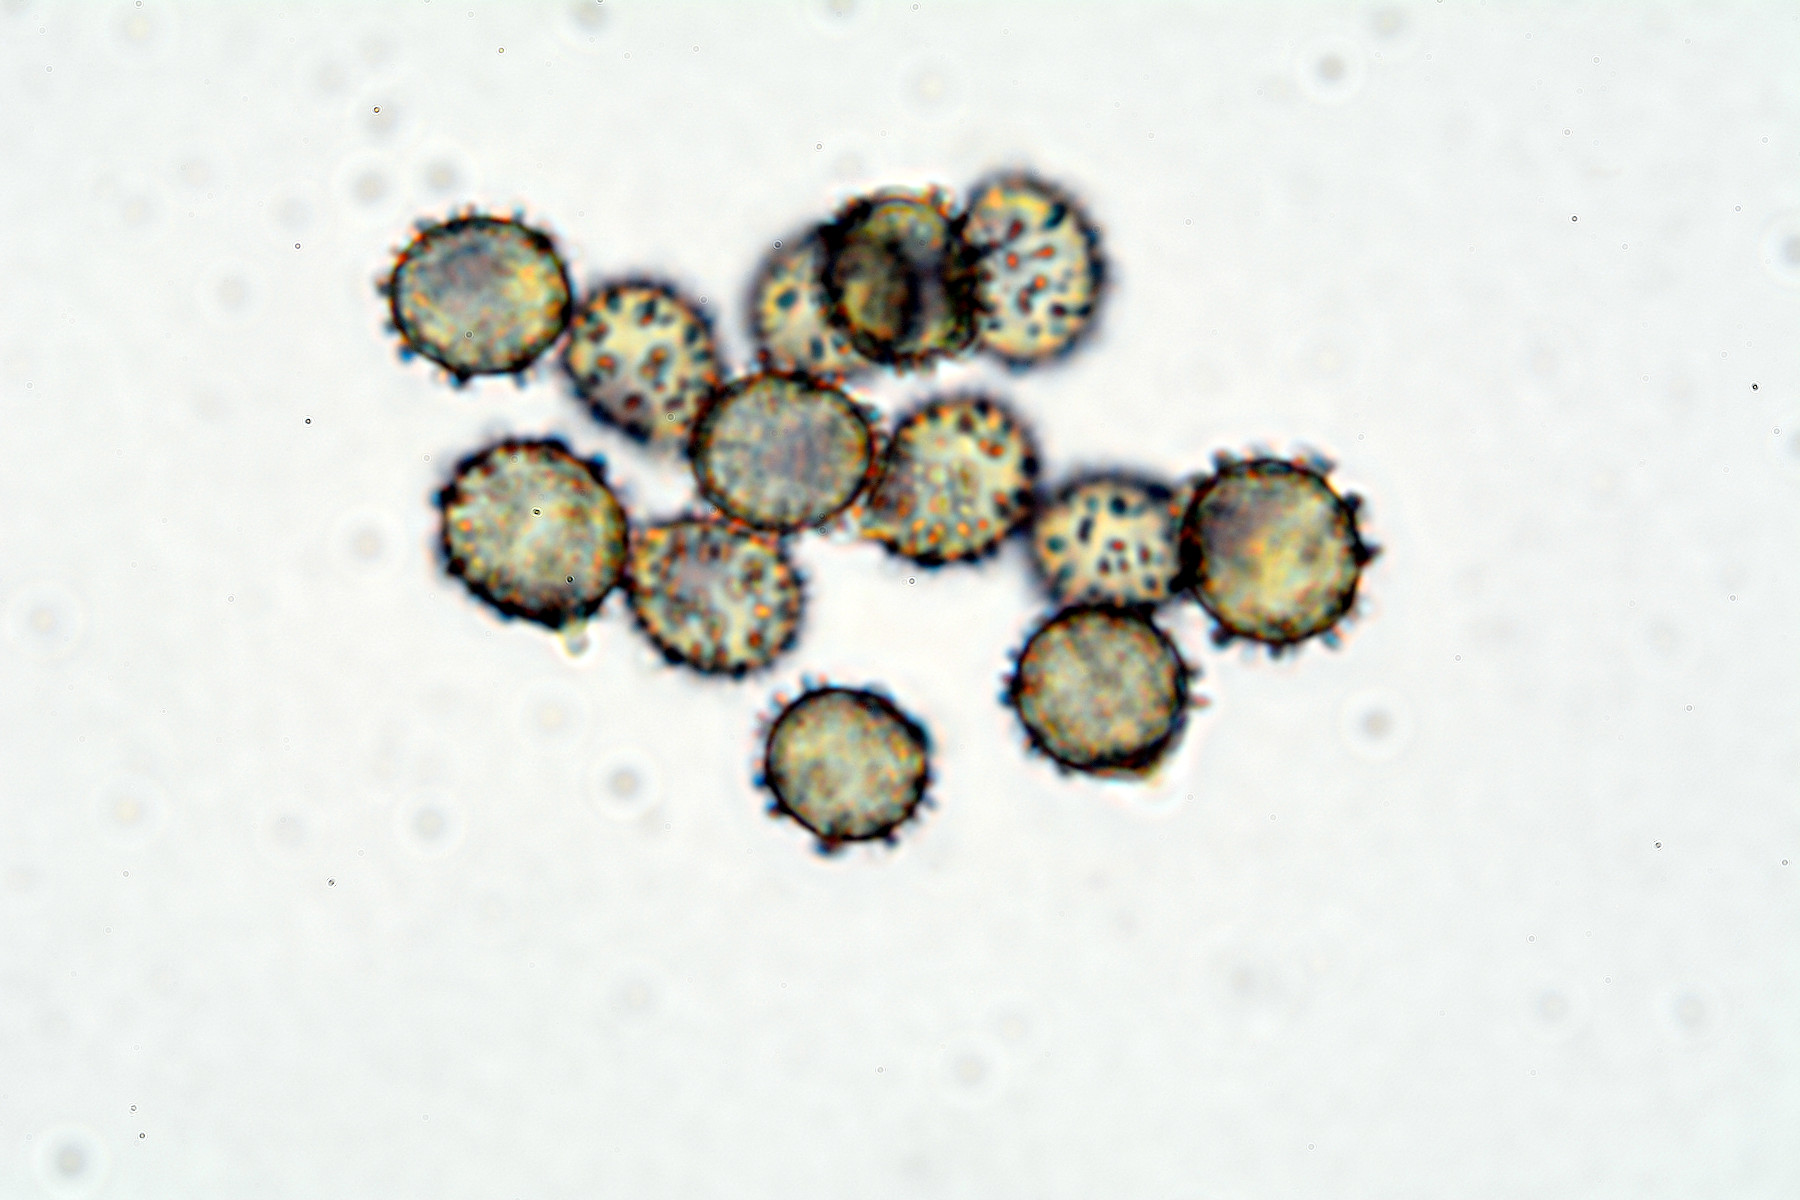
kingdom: Fungi
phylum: Basidiomycota
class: Agaricomycetes
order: Russulales
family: Russulaceae
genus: Russula
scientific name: Russula laeta
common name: orangerosa skørhat
